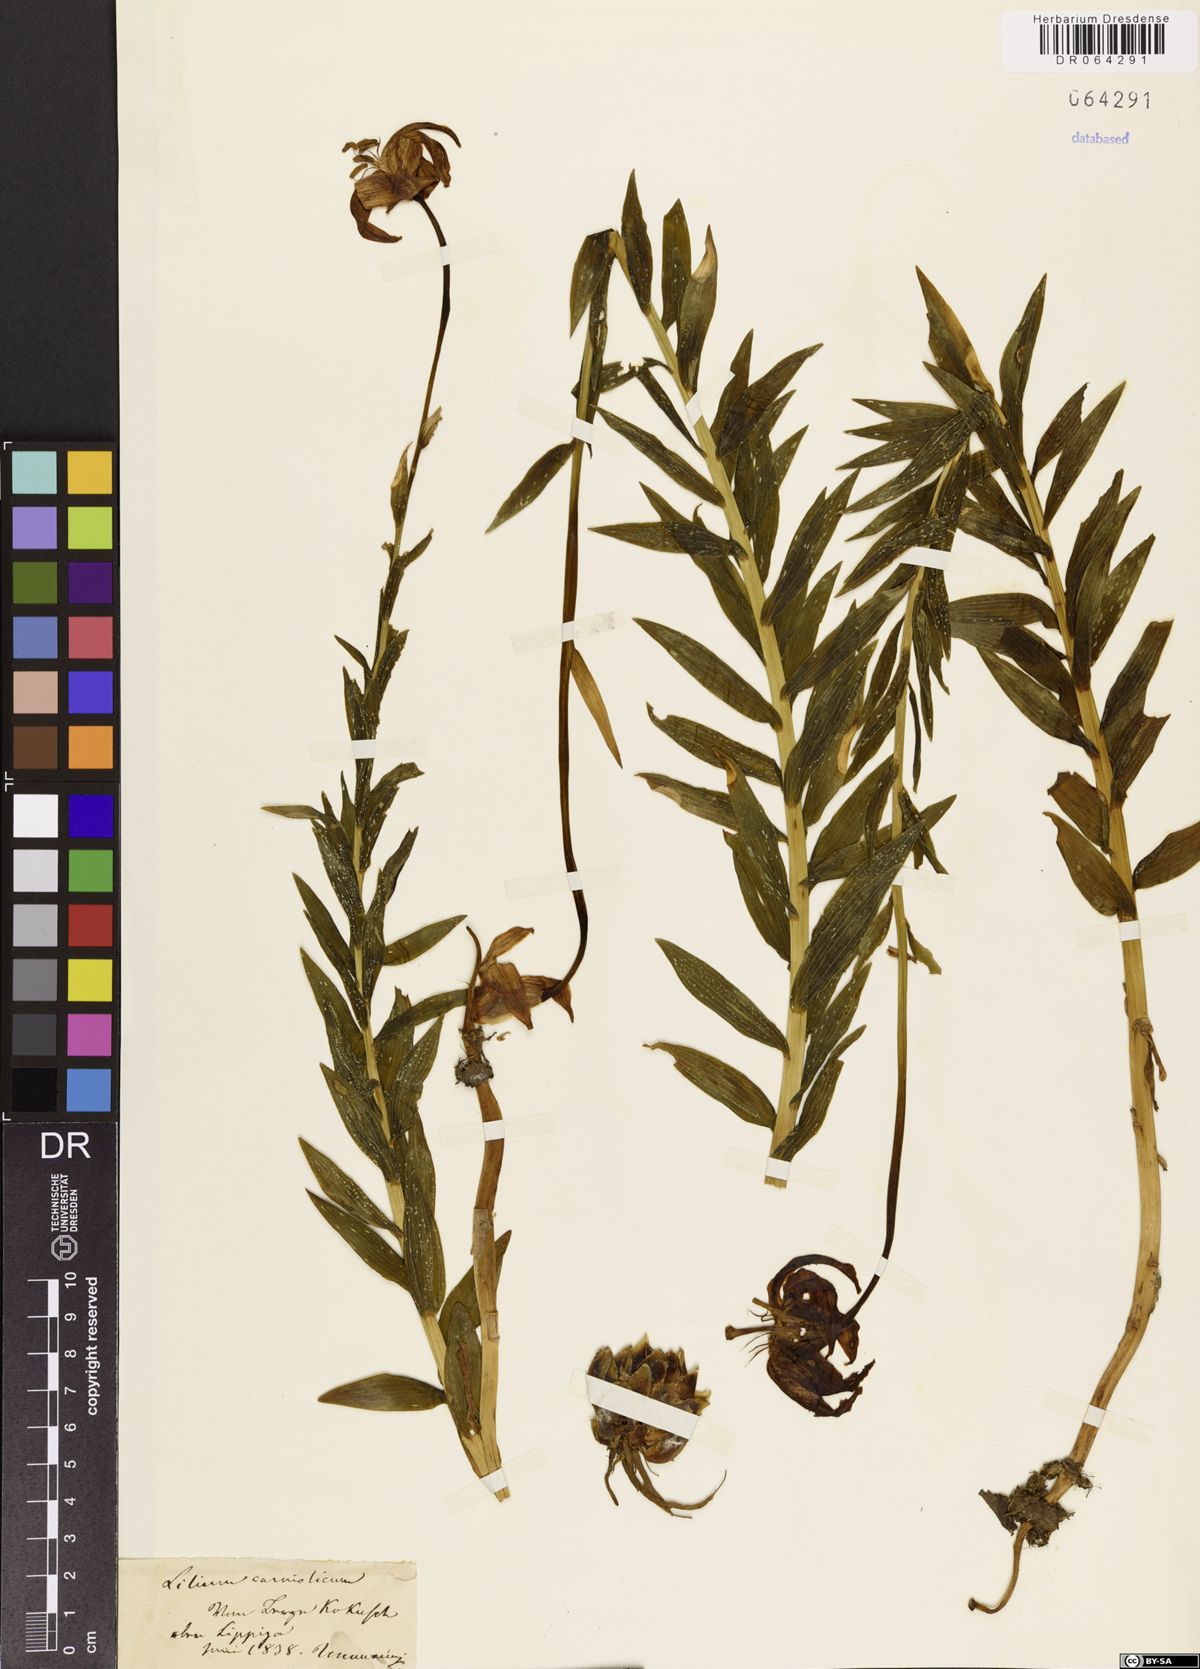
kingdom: Plantae
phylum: Tracheophyta
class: Liliopsida
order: Liliales
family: Liliaceae
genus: Lilium
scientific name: Lilium carniolicum
